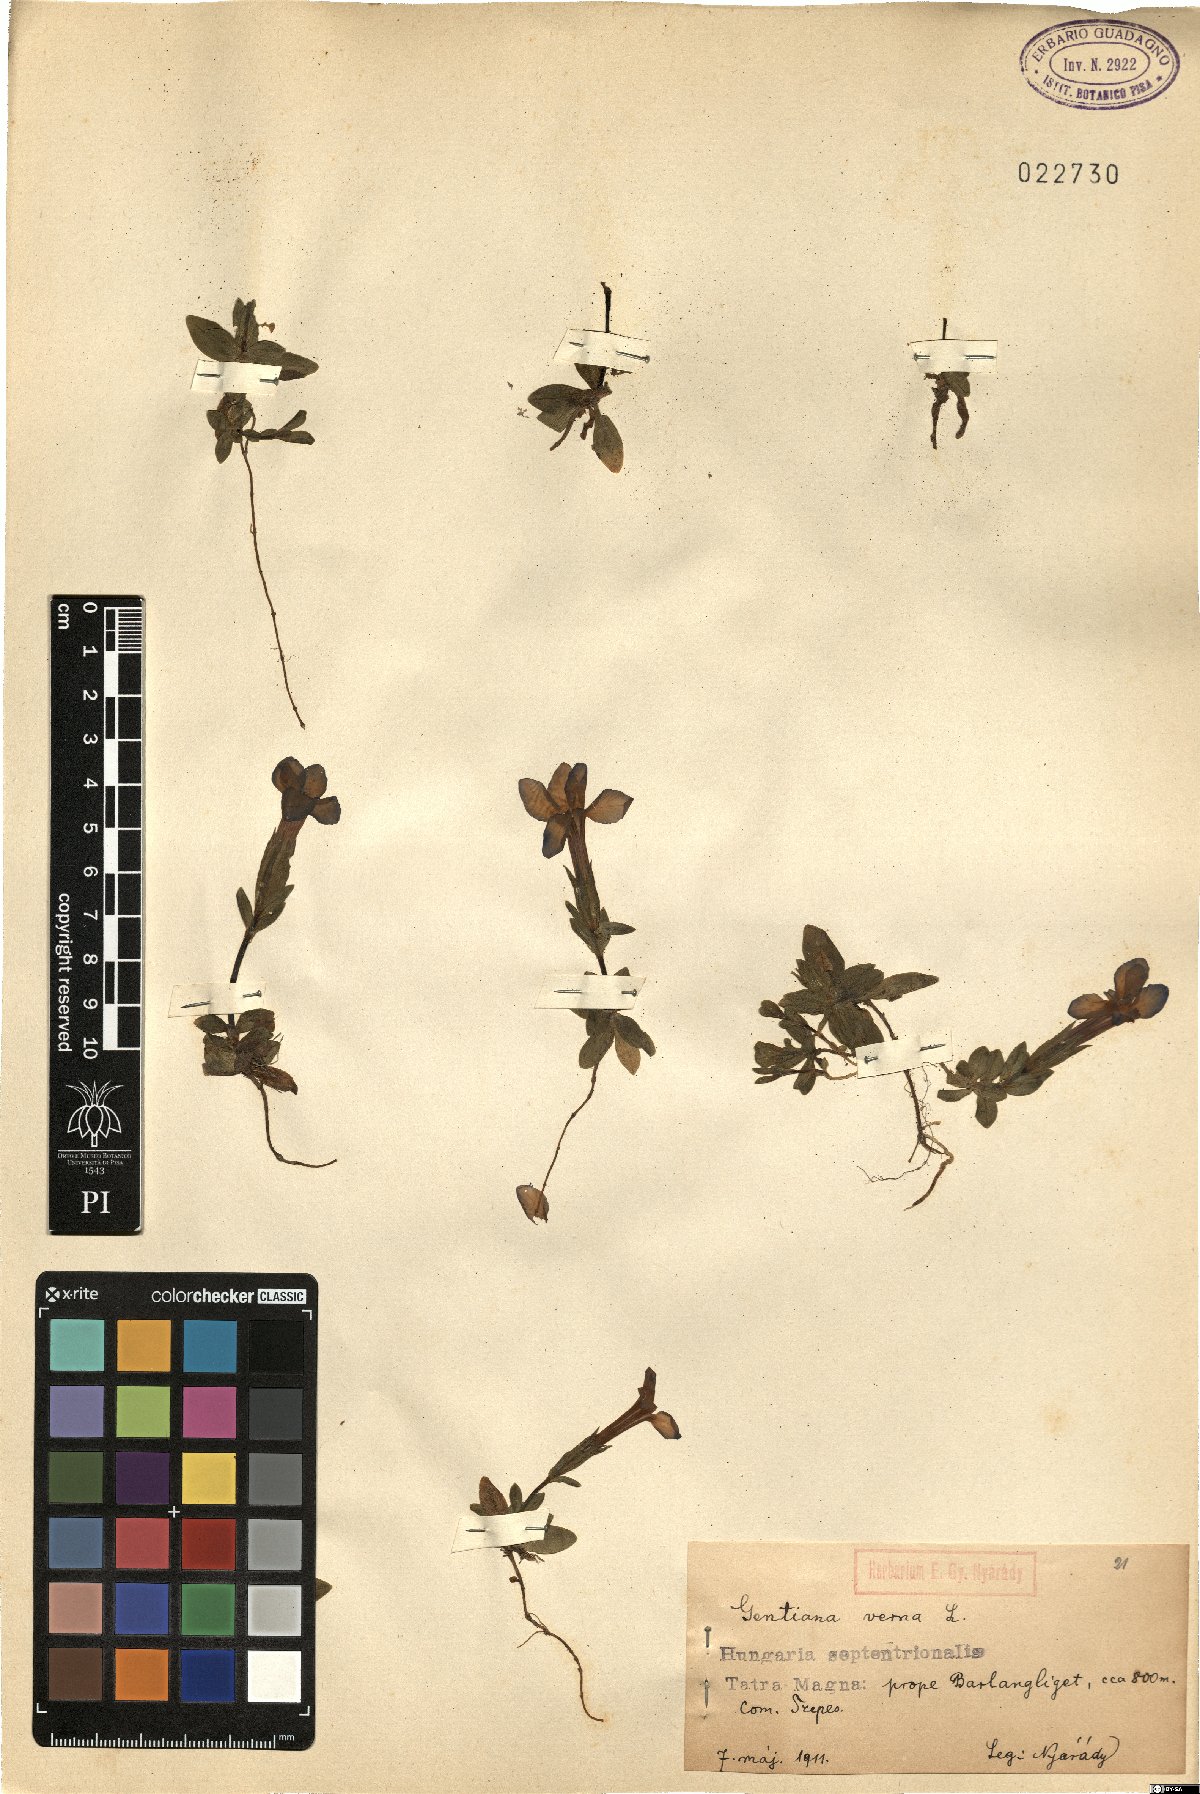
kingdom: Plantae
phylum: Tracheophyta
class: Magnoliopsida
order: Gentianales
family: Gentianaceae
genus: Gentiana
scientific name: Gentiana verna
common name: Spring gentian
